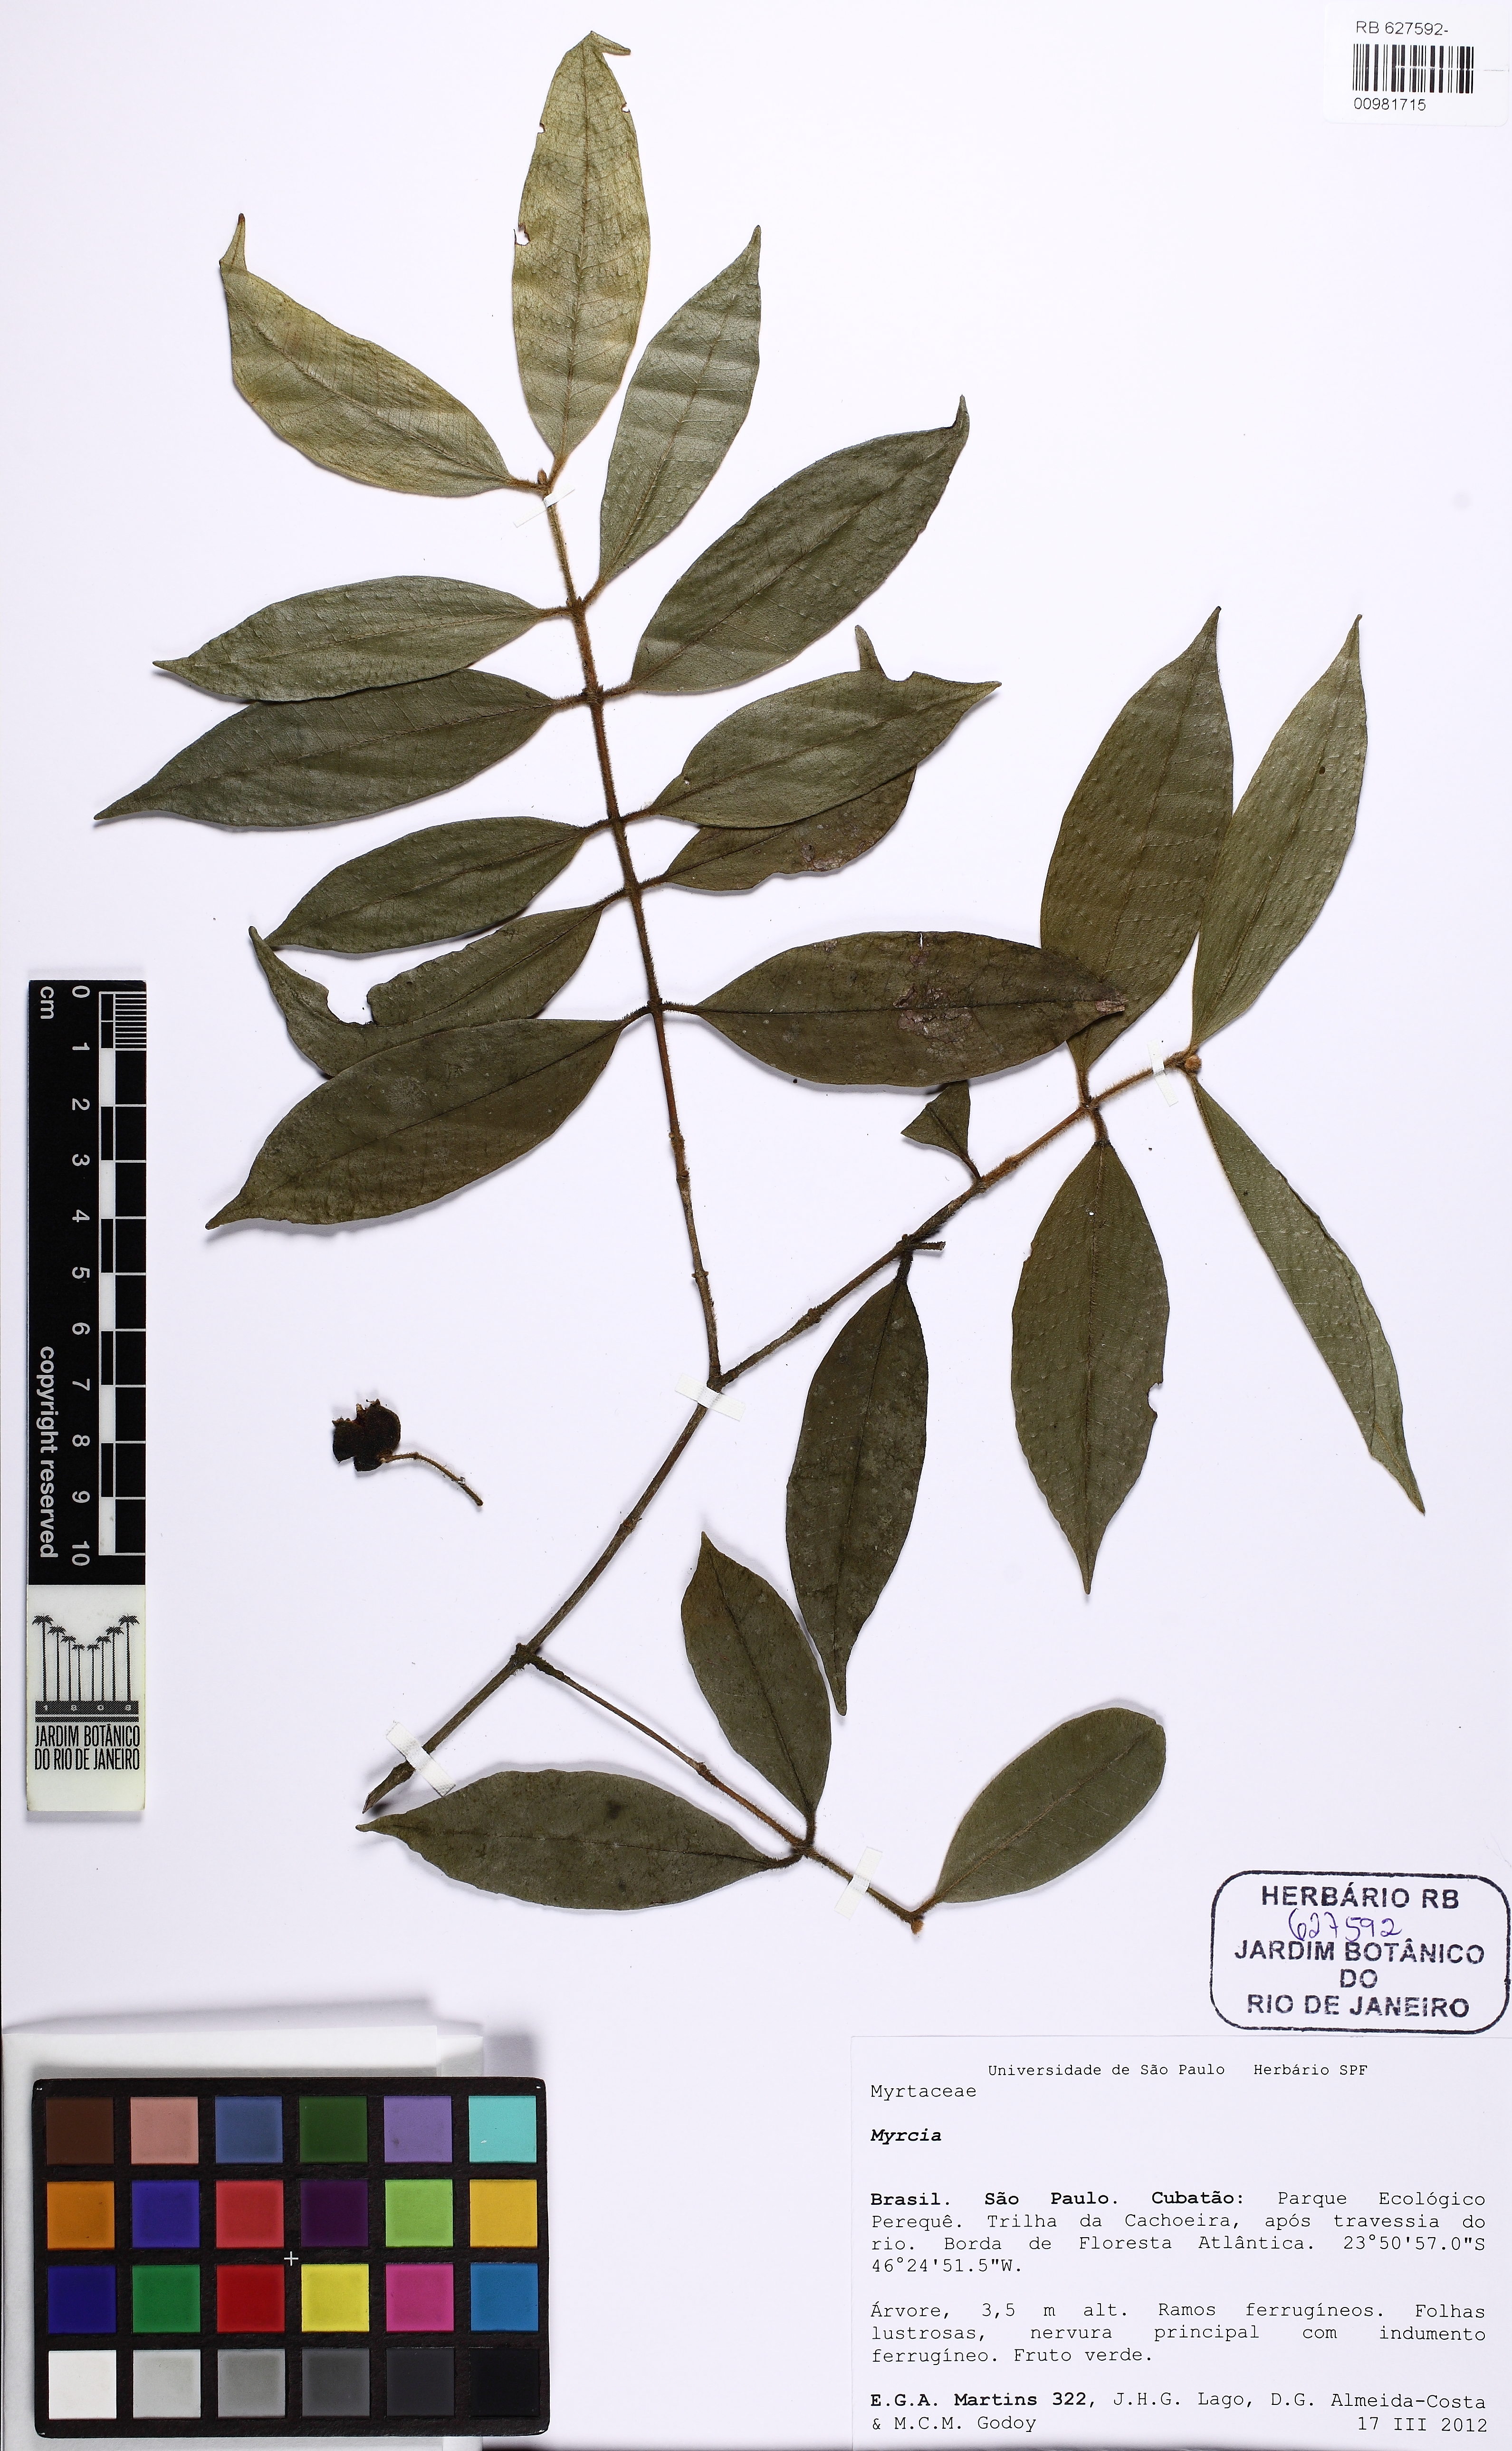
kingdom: Plantae
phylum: Tracheophyta
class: Magnoliopsida
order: Myrtales
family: Myrtaceae
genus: Myrcia
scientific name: Myrcia
